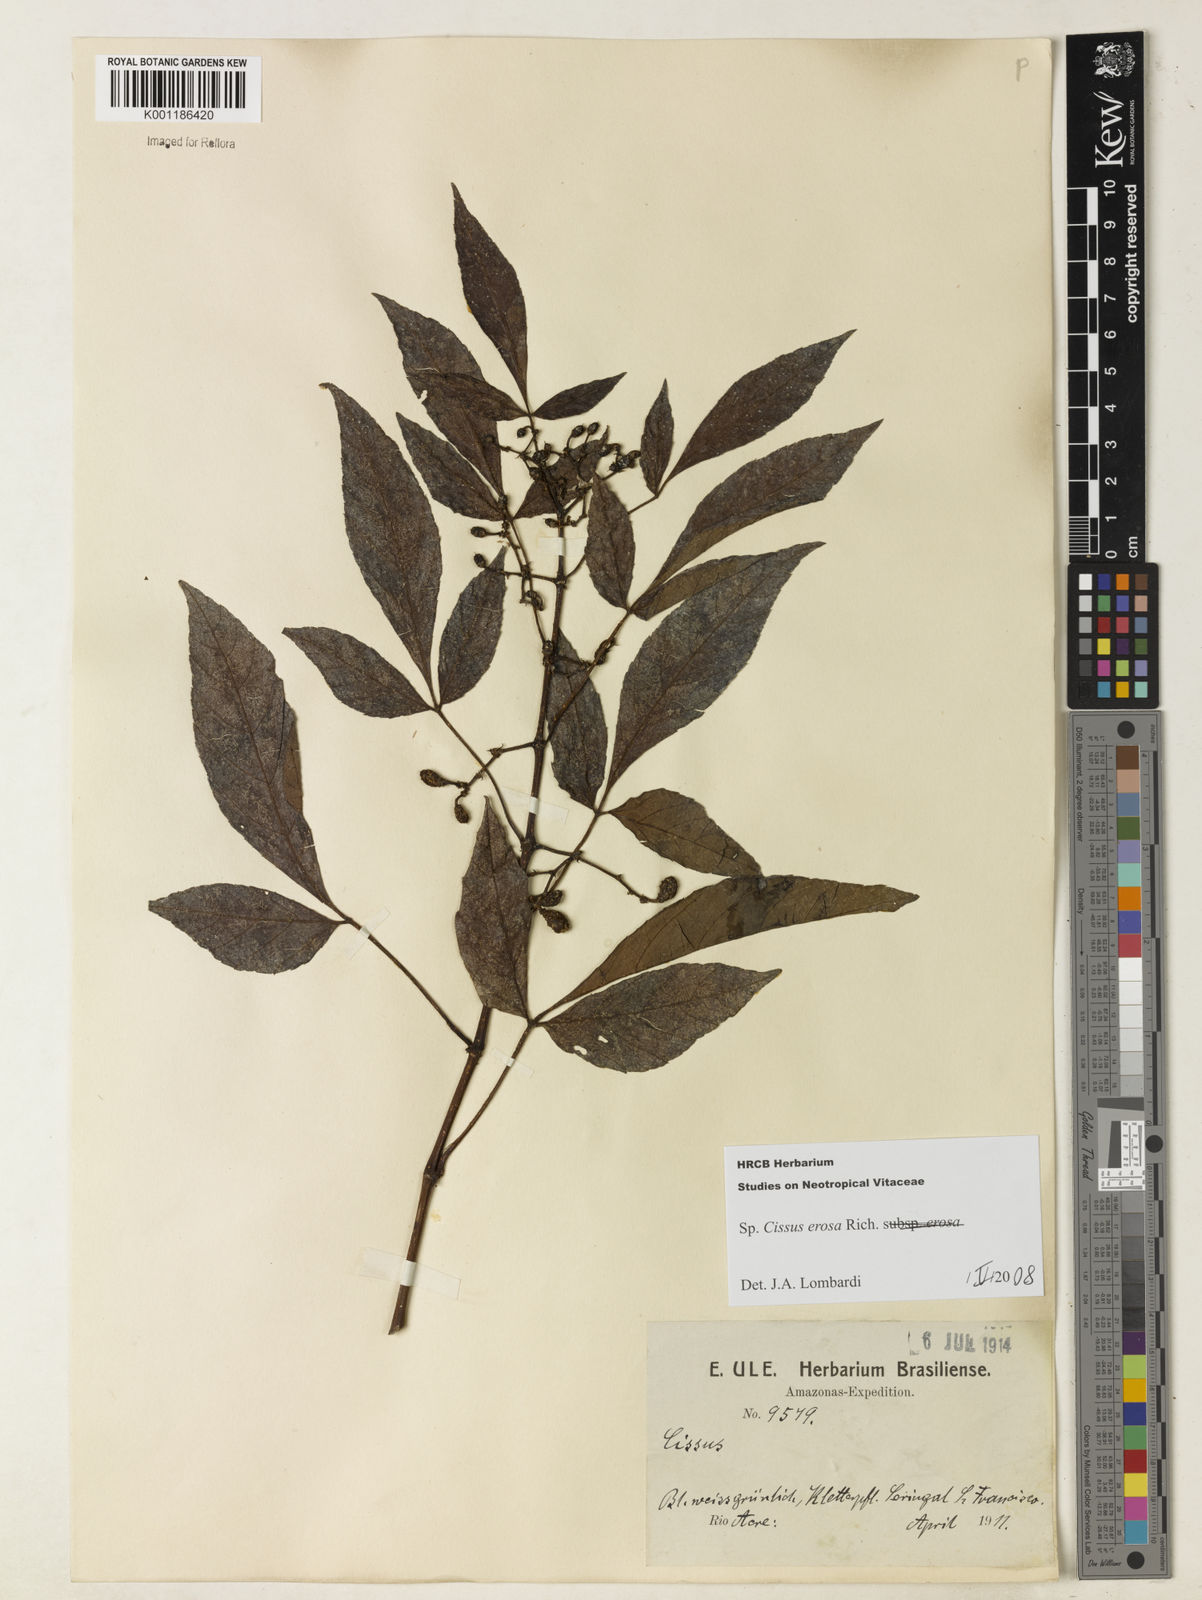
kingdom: Plantae
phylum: Tracheophyta
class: Magnoliopsida
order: Vitales
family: Vitaceae
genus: Cissus
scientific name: Cissus erosa
